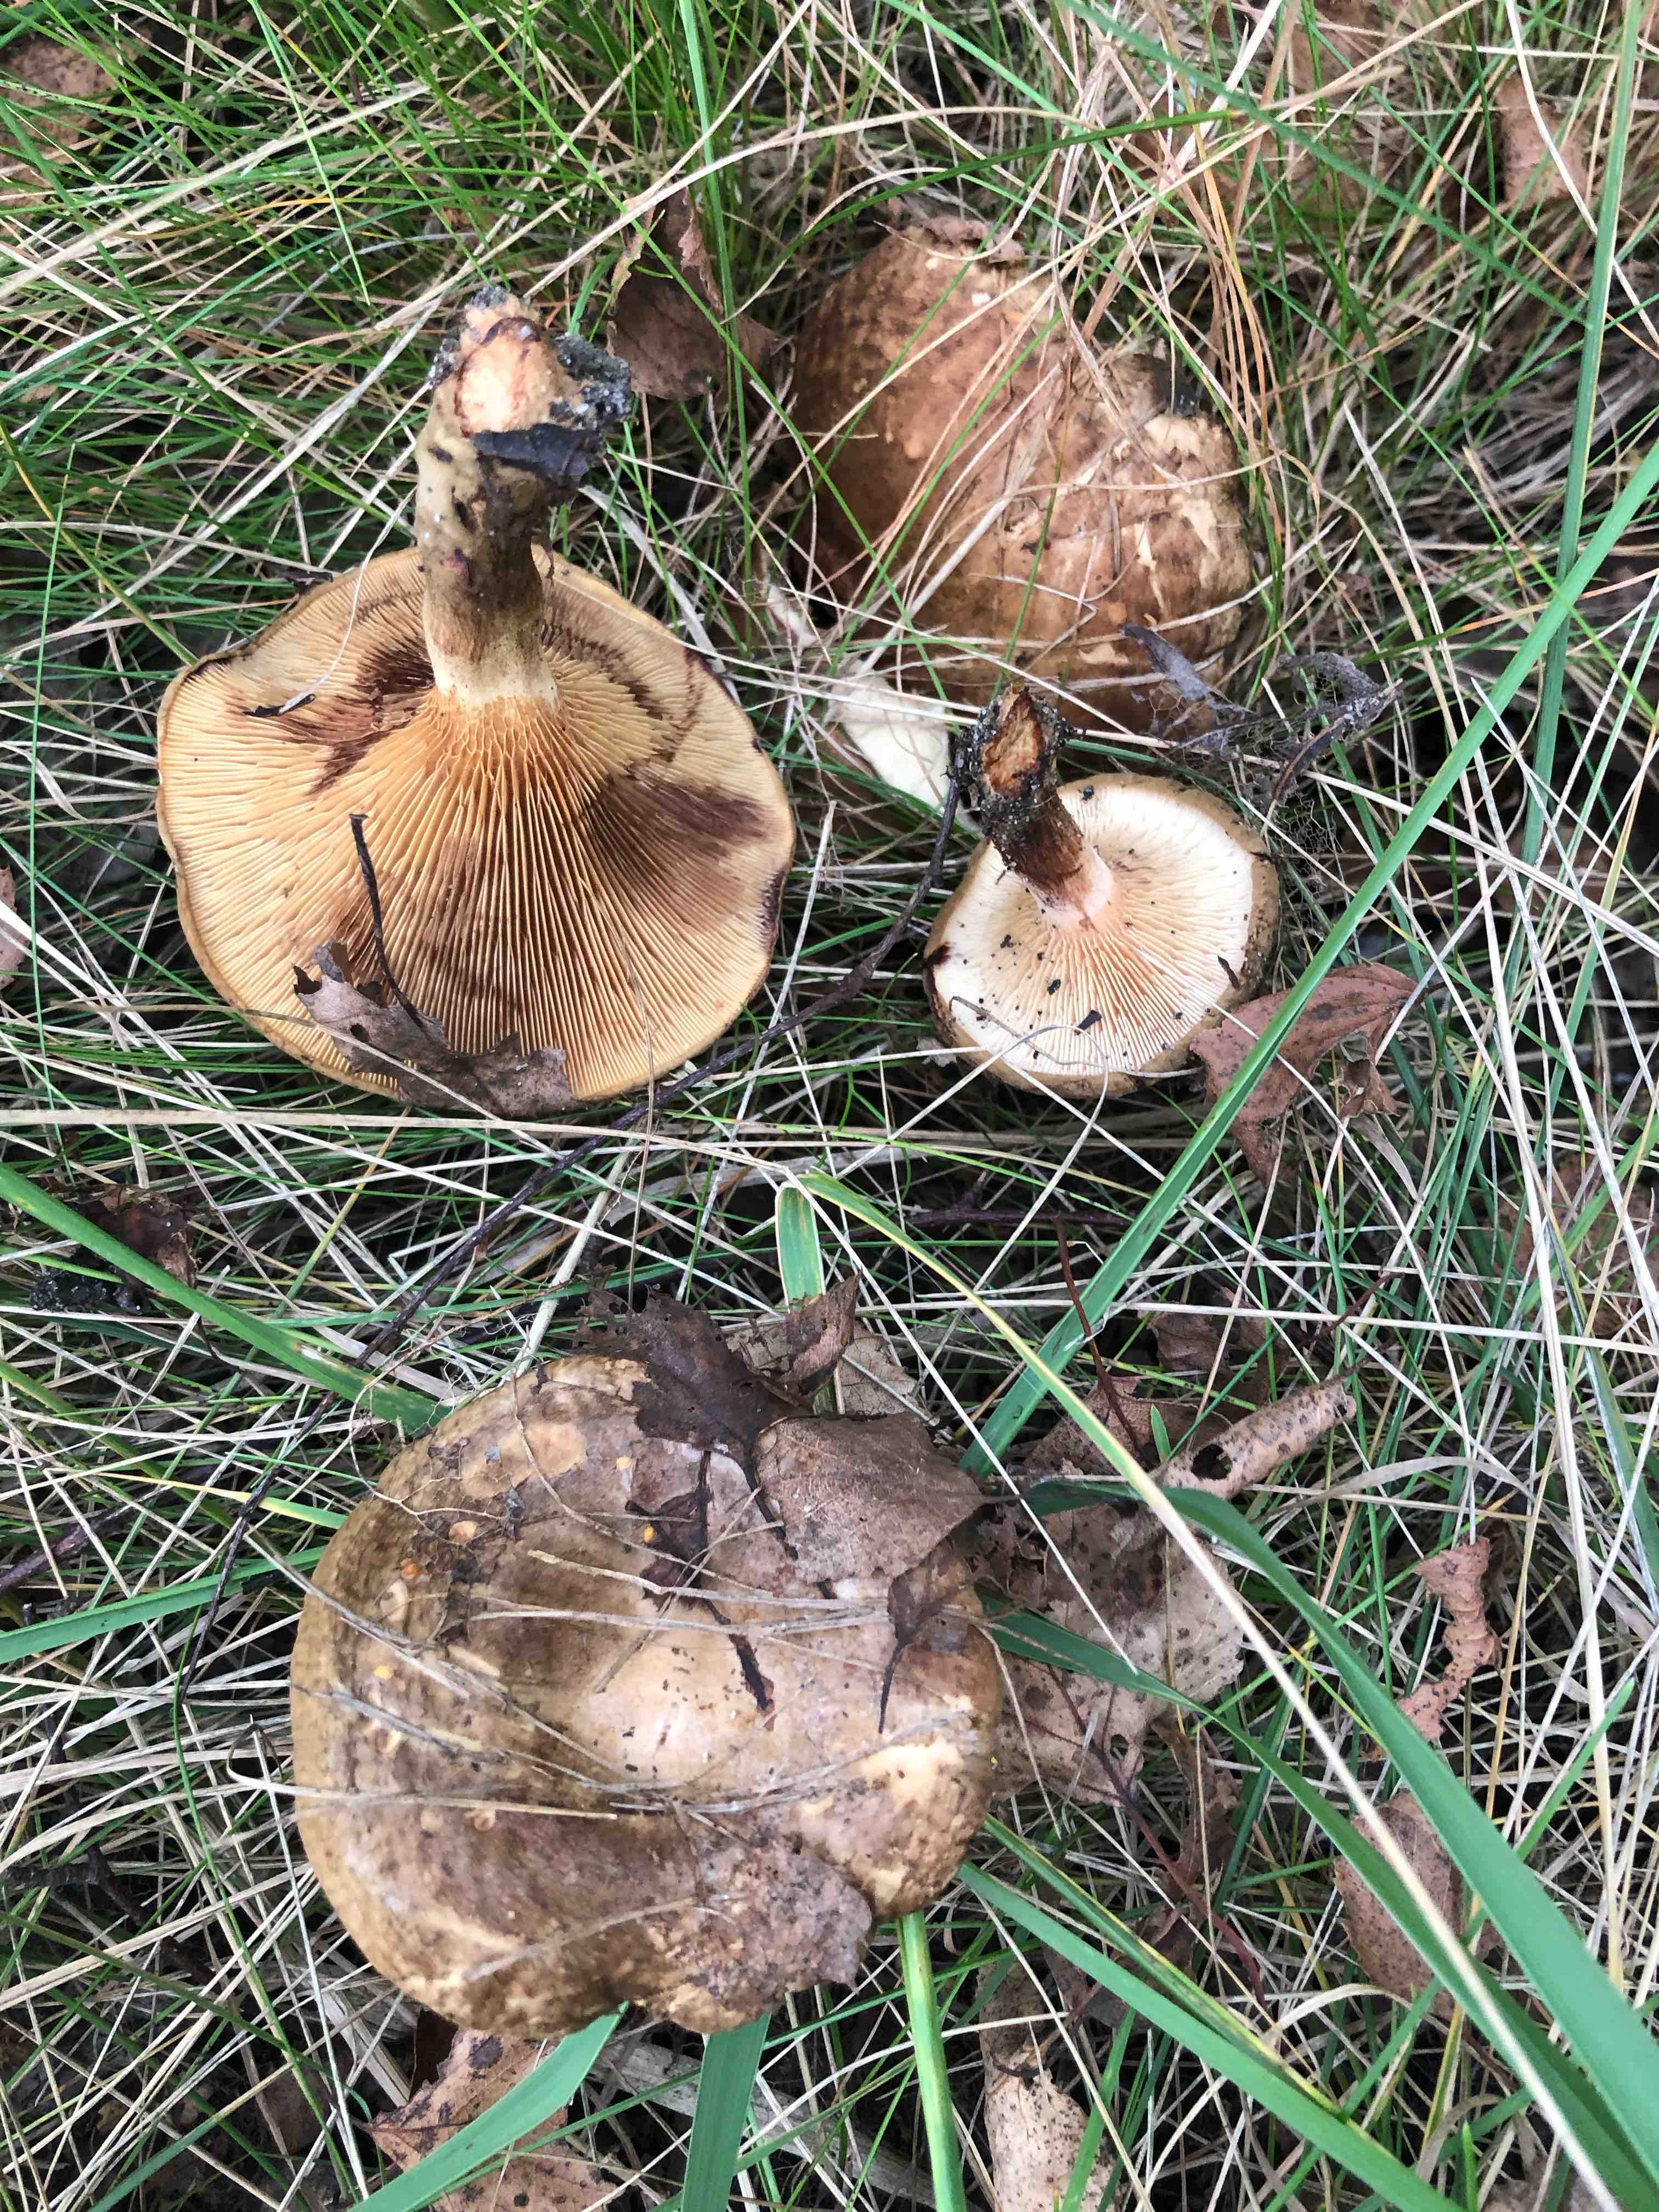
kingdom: Fungi
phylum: Basidiomycota
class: Agaricomycetes
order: Boletales
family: Paxillaceae
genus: Paxillus
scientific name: Paxillus involutus
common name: almindelig netbladhat
